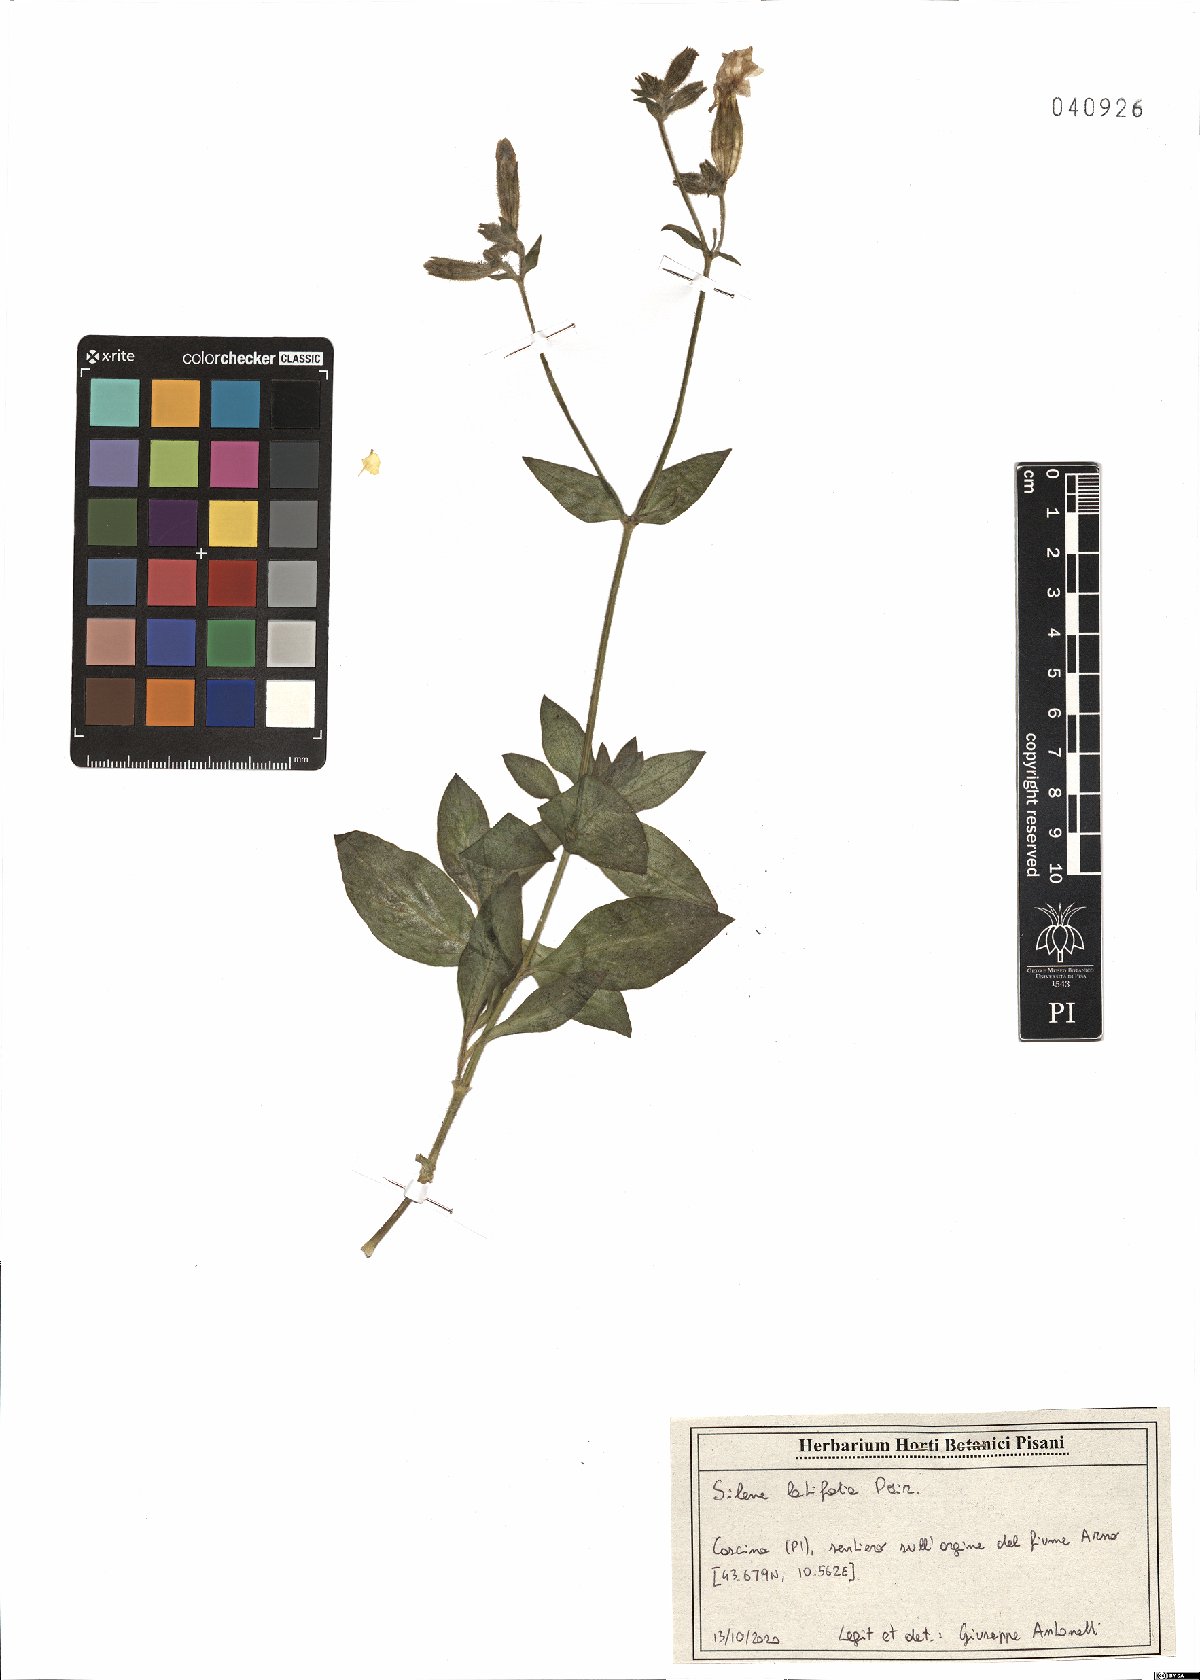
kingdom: Plantae
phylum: Tracheophyta
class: Magnoliopsida
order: Caryophyllales
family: Caryophyllaceae
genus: Silene
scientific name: Silene latifolia
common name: White campion
